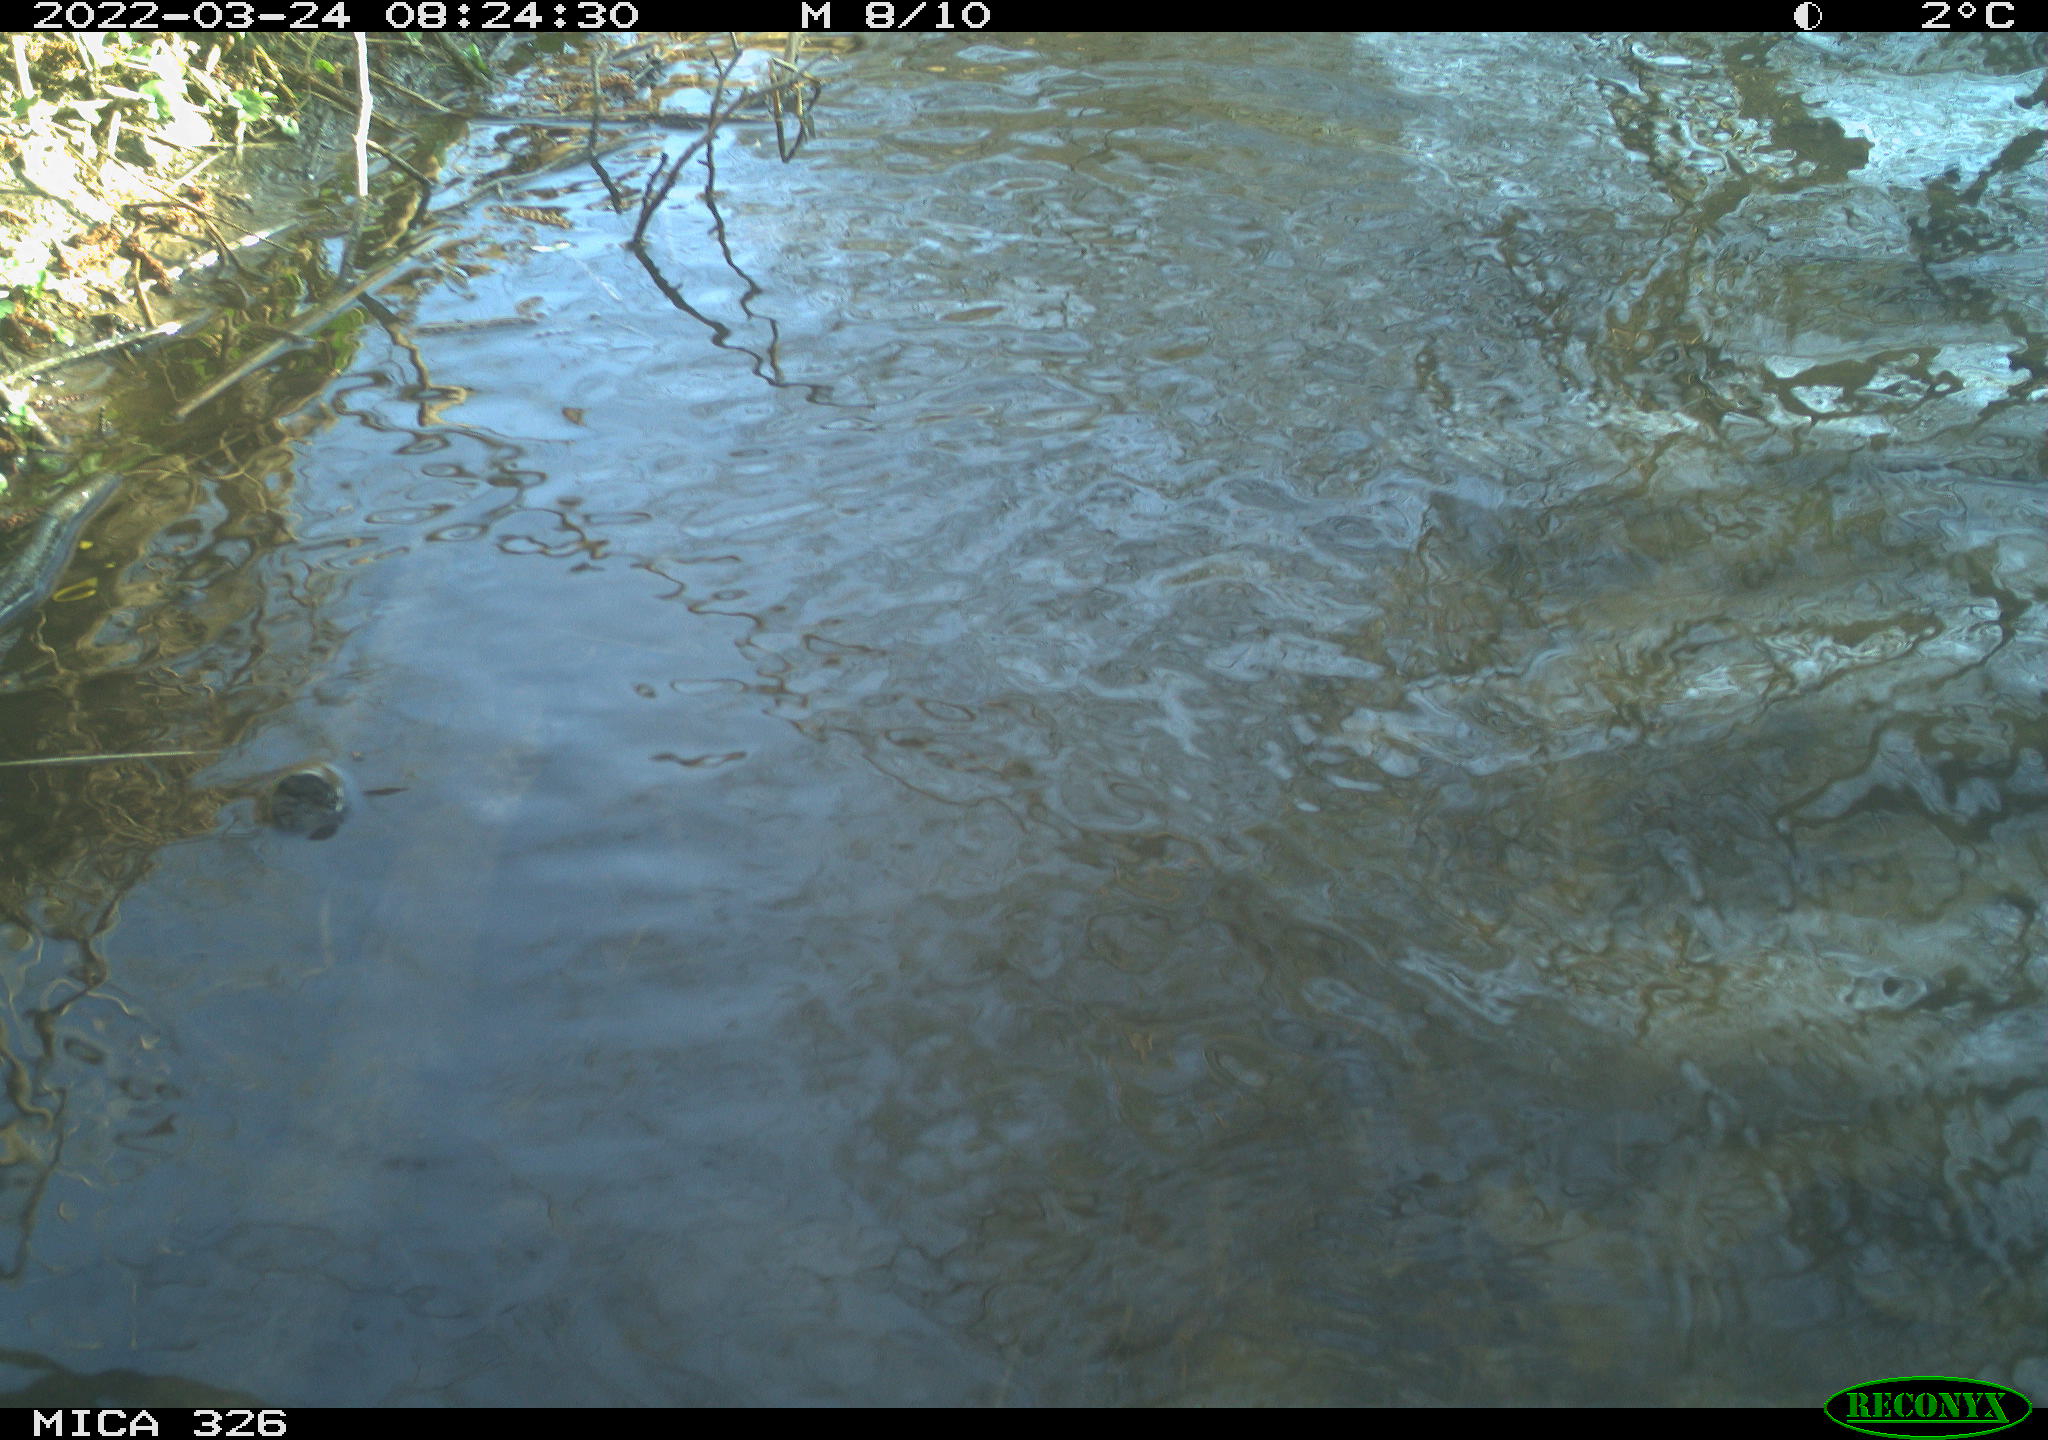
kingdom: Animalia
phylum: Chordata
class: Mammalia
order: Rodentia
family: Cricetidae
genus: Ondatra
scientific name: Ondatra zibethicus
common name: Muskrat
